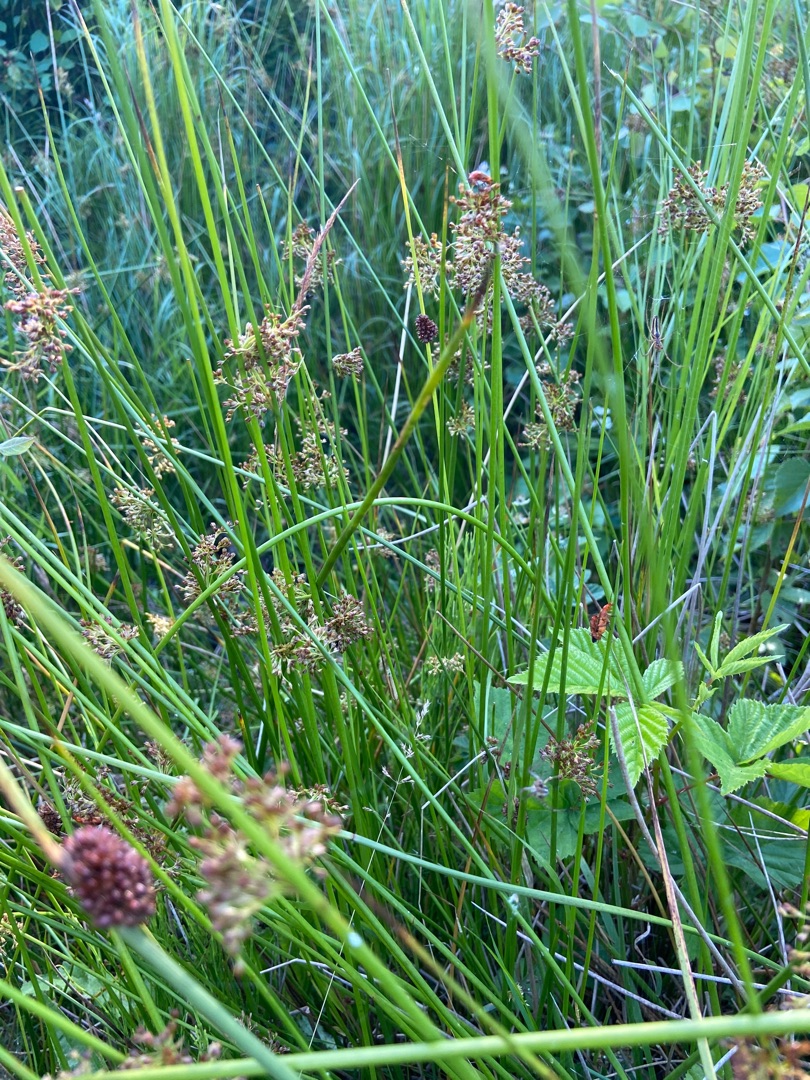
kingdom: Plantae
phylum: Tracheophyta
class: Liliopsida
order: Poales
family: Juncaceae
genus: Juncus
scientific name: Juncus effusus
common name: Lyse-siv
